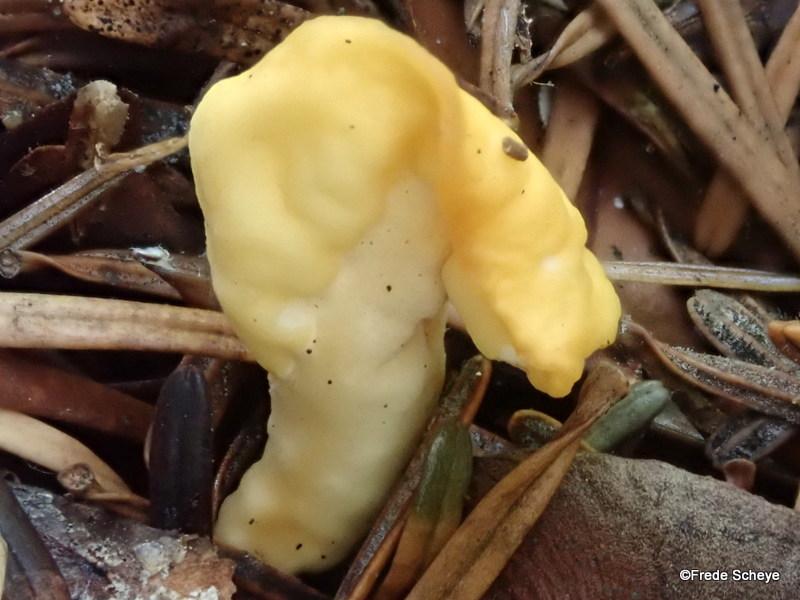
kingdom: Fungi
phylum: Ascomycota
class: Leotiomycetes
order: Rhytismatales
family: Cudoniaceae
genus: Spathularia
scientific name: Spathularia flavida
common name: gul spatelsvamp
